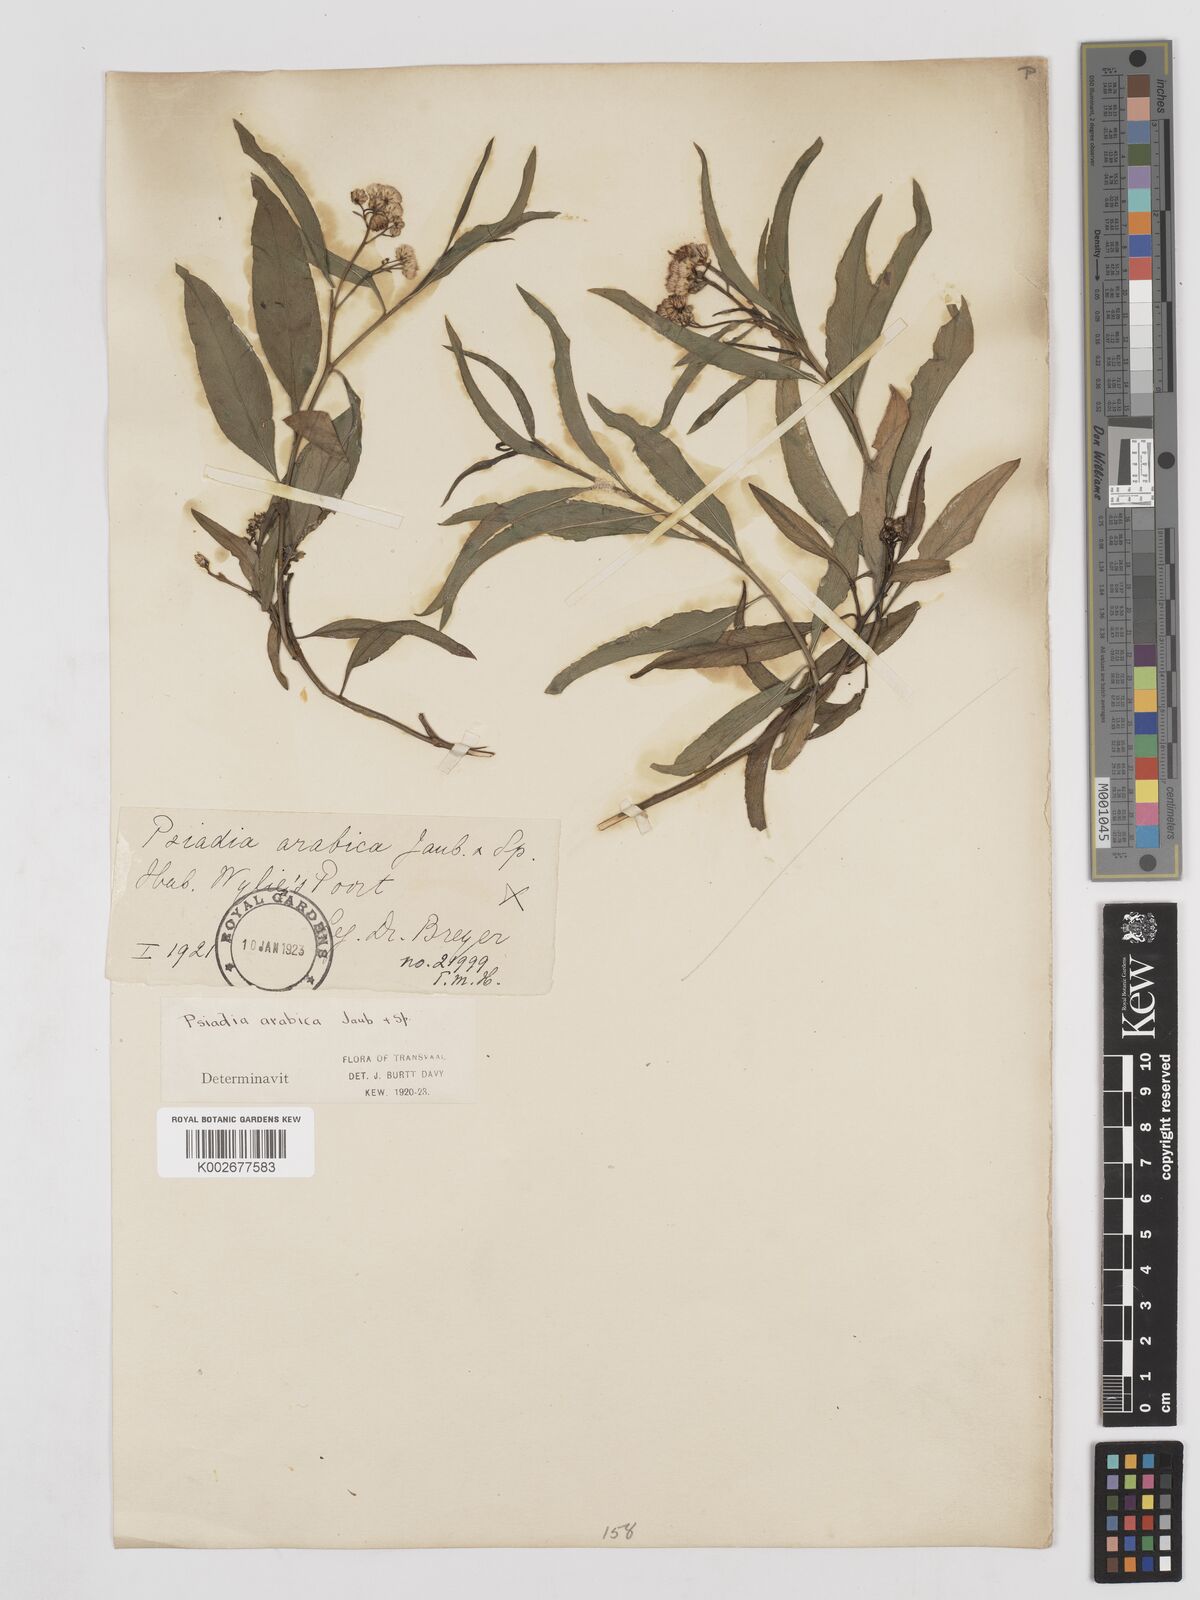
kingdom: Plantae
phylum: Tracheophyta
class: Magnoliopsida
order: Asterales
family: Asteraceae
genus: Psiadia
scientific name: Psiadia punctulata
